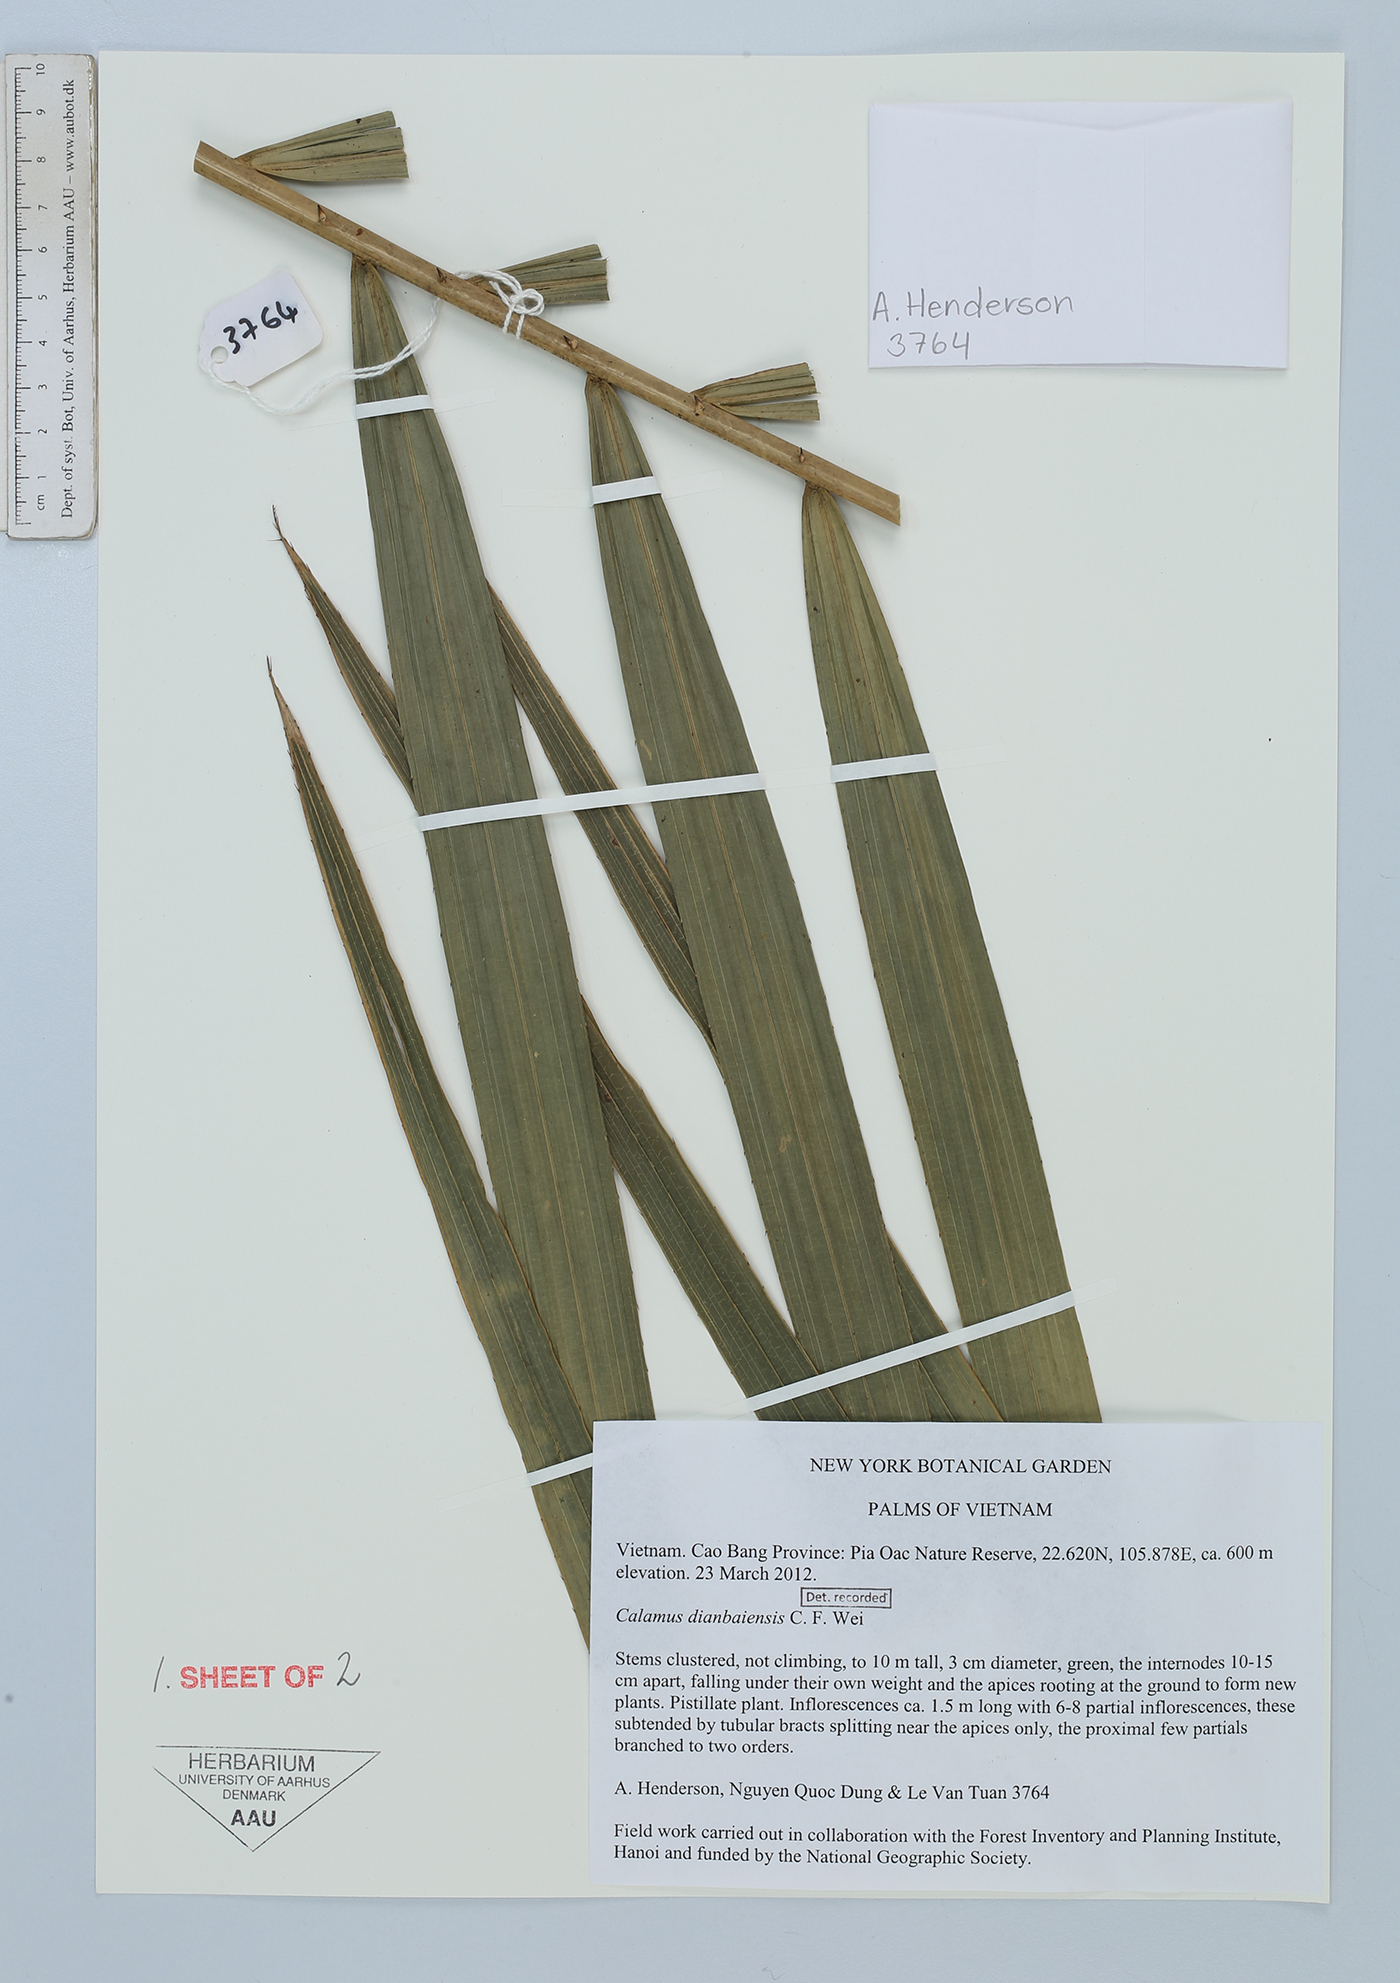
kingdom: Plantae
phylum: Tracheophyta
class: Liliopsida
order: Arecales
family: Arecaceae
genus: Calamus
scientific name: Calamus dianbaiensis
